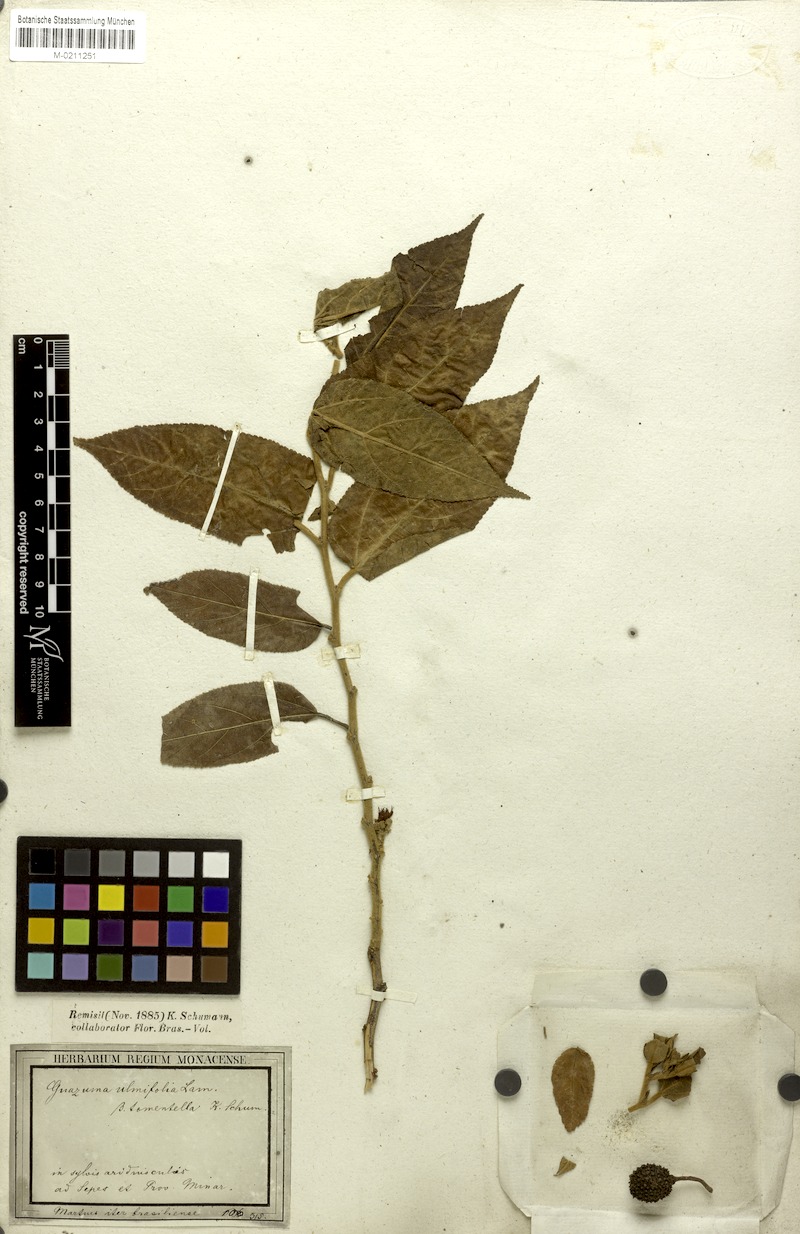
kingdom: Plantae
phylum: Tracheophyta
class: Magnoliopsida
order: Malvales
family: Malvaceae
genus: Guazuma
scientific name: Guazuma ulmifolia
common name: Bastard-cedar
